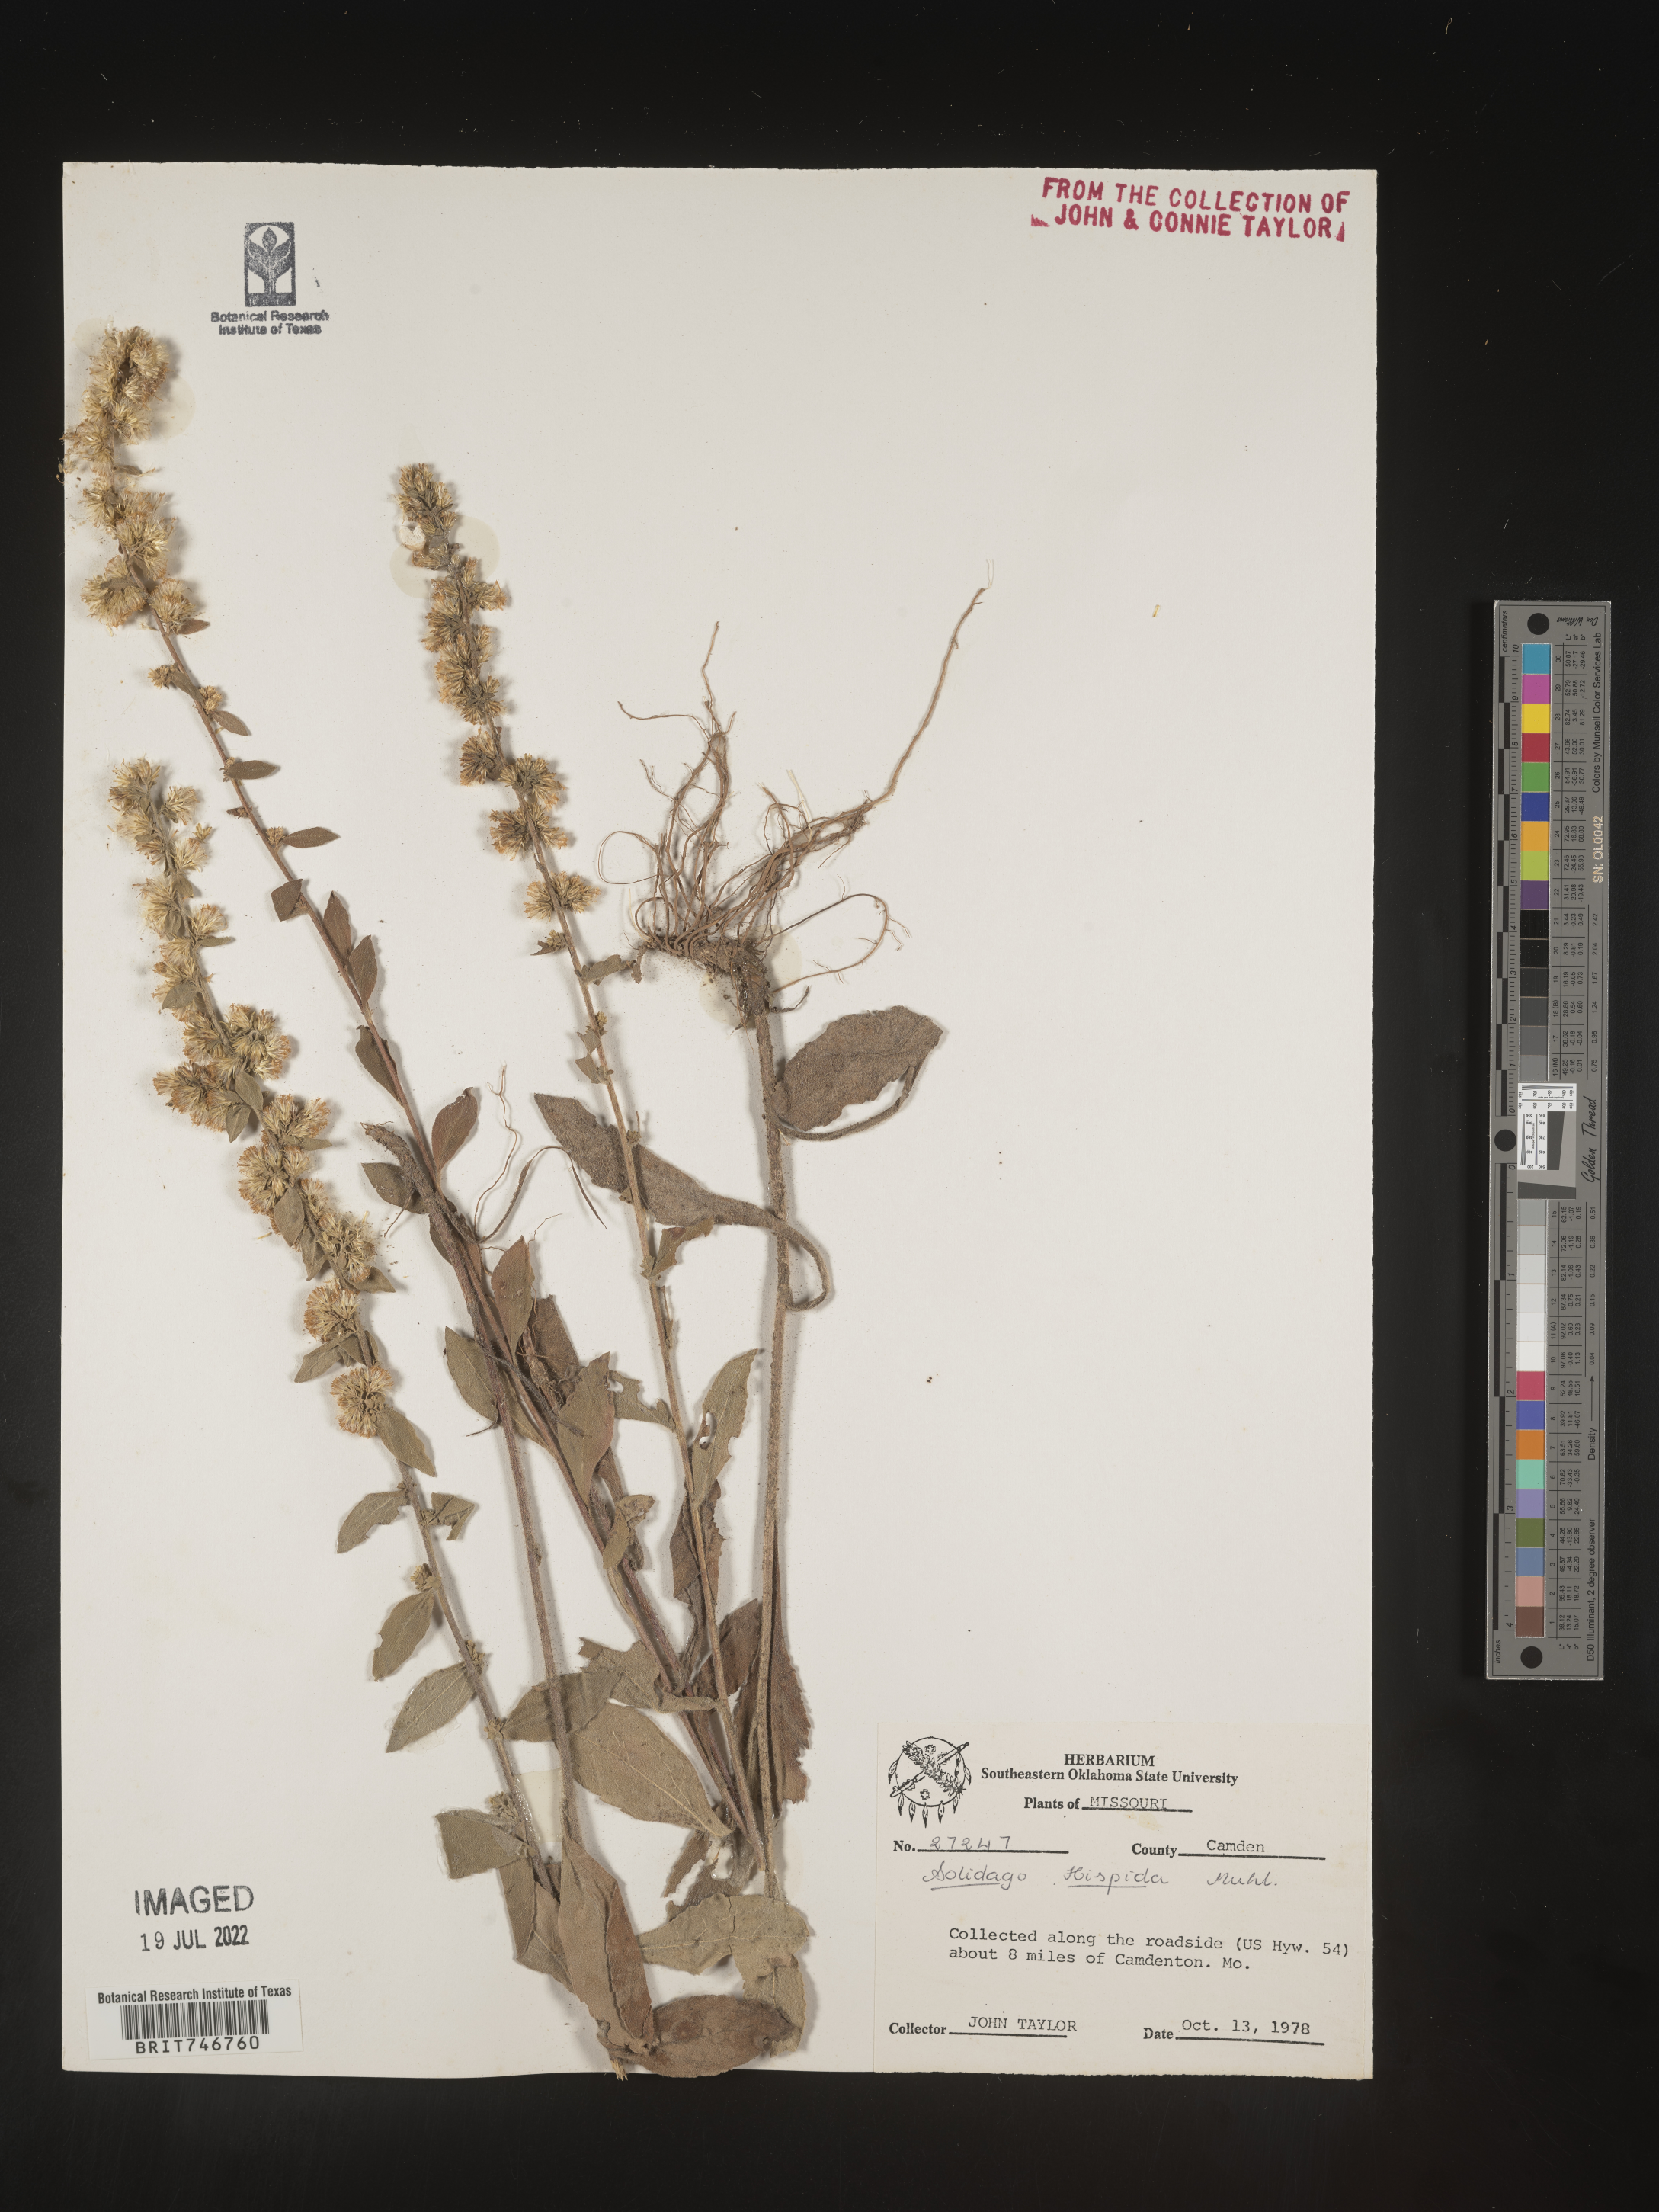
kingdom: Plantae
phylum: Tracheophyta
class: Magnoliopsida
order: Asterales
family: Asteraceae
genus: Solidago
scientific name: Solidago hispida
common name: Hairy goldenrod
